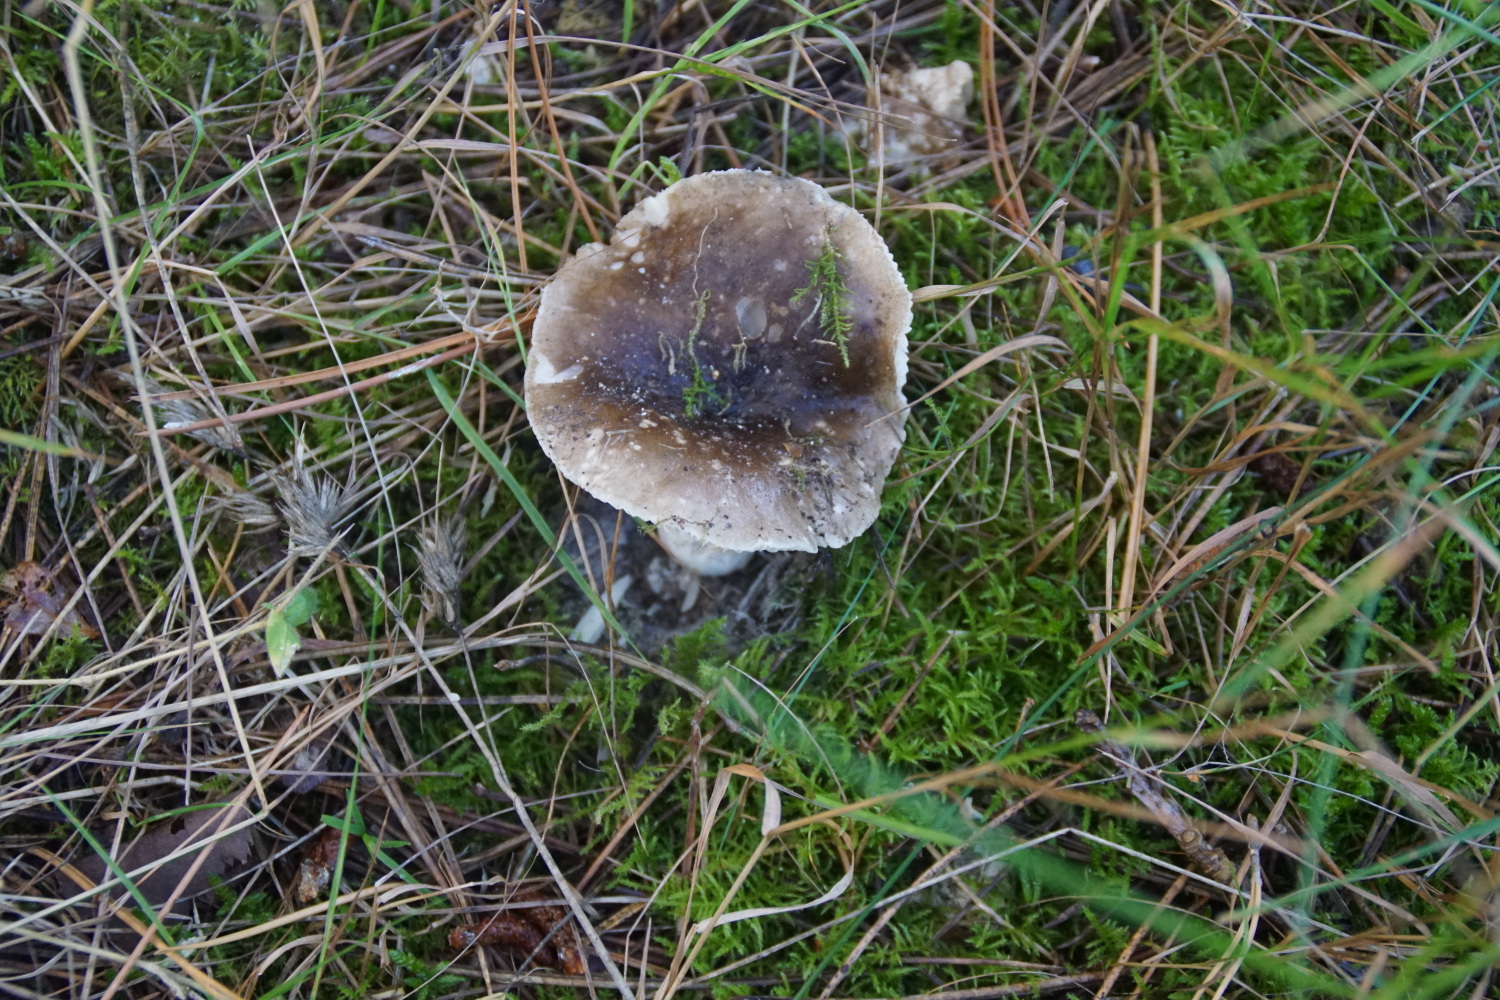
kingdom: Fungi
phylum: Basidiomycota
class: Agaricomycetes
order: Russulales
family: Russulaceae
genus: Russula
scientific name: Russula adusta
